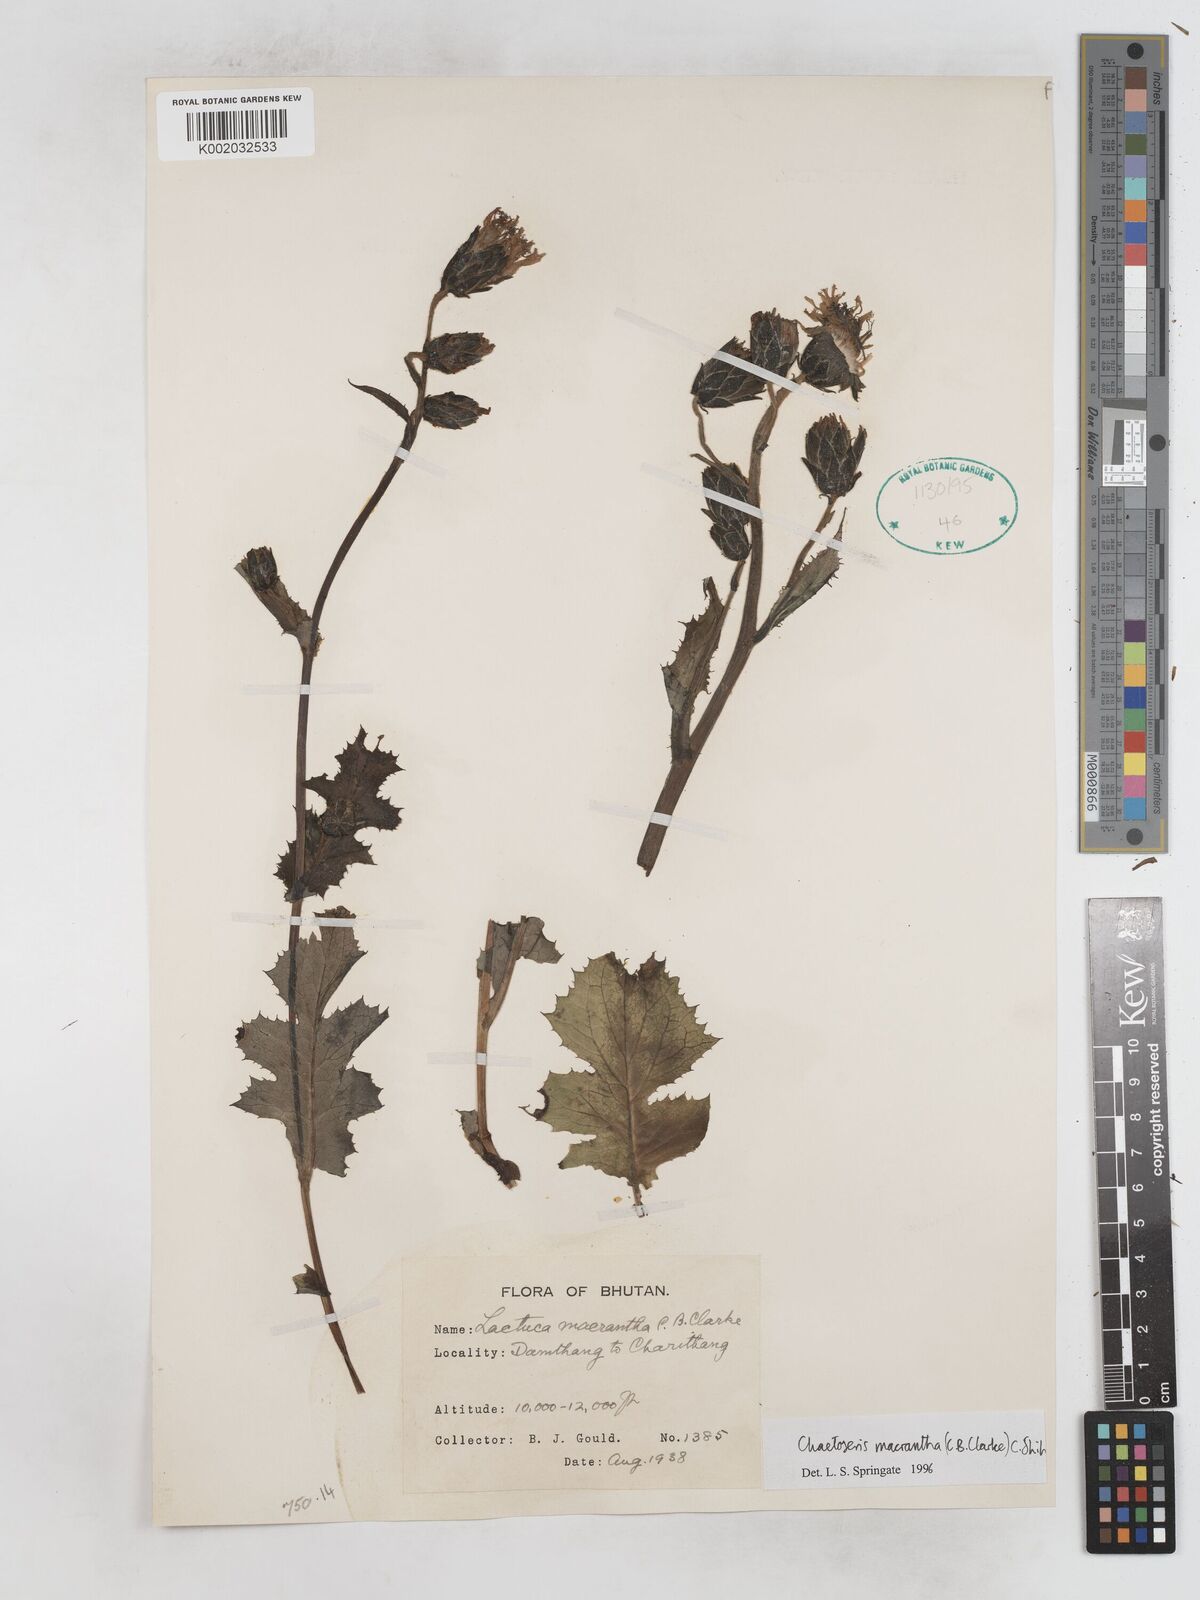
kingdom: Plantae
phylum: Tracheophyta
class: Magnoliopsida
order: Asterales
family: Asteraceae
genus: Melanoseris
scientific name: Melanoseris macrantha
